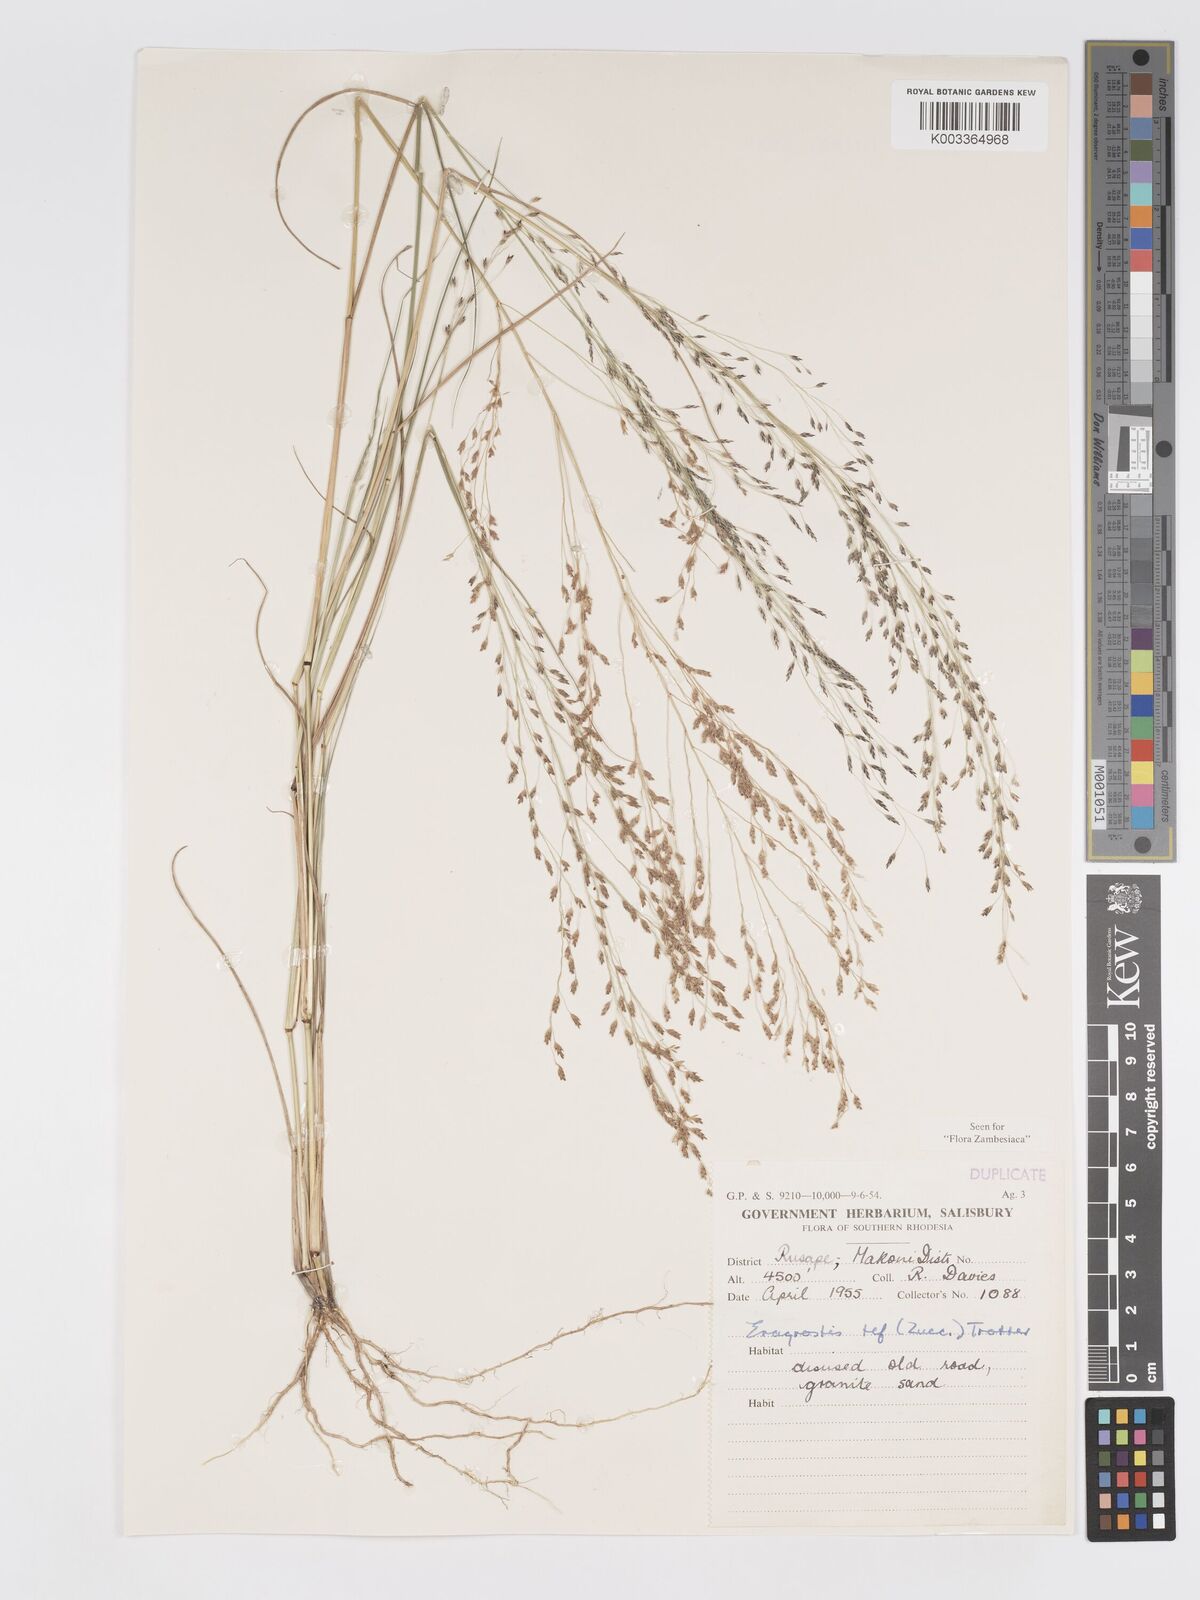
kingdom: Plantae
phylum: Tracheophyta
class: Liliopsida
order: Poales
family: Poaceae
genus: Eragrostis
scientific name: Eragrostis tef
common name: Teff
